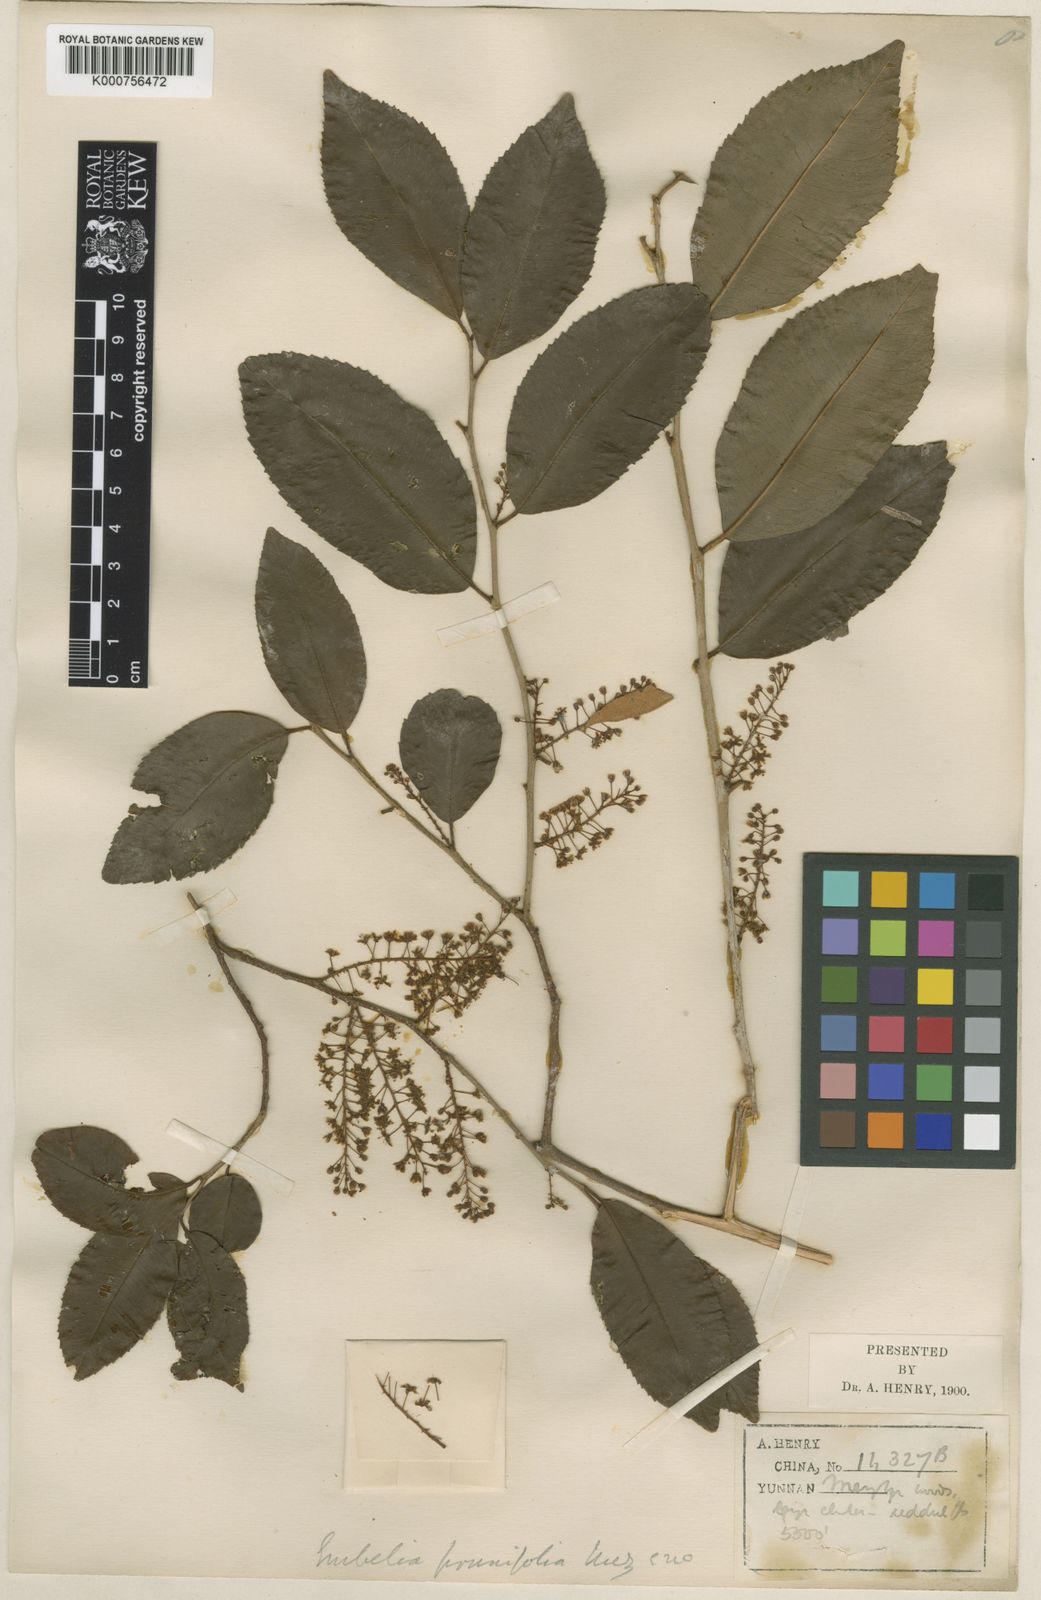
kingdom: Plantae
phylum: Tracheophyta
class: Magnoliopsida
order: Ericales
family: Primulaceae
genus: Embelia
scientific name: Embelia
